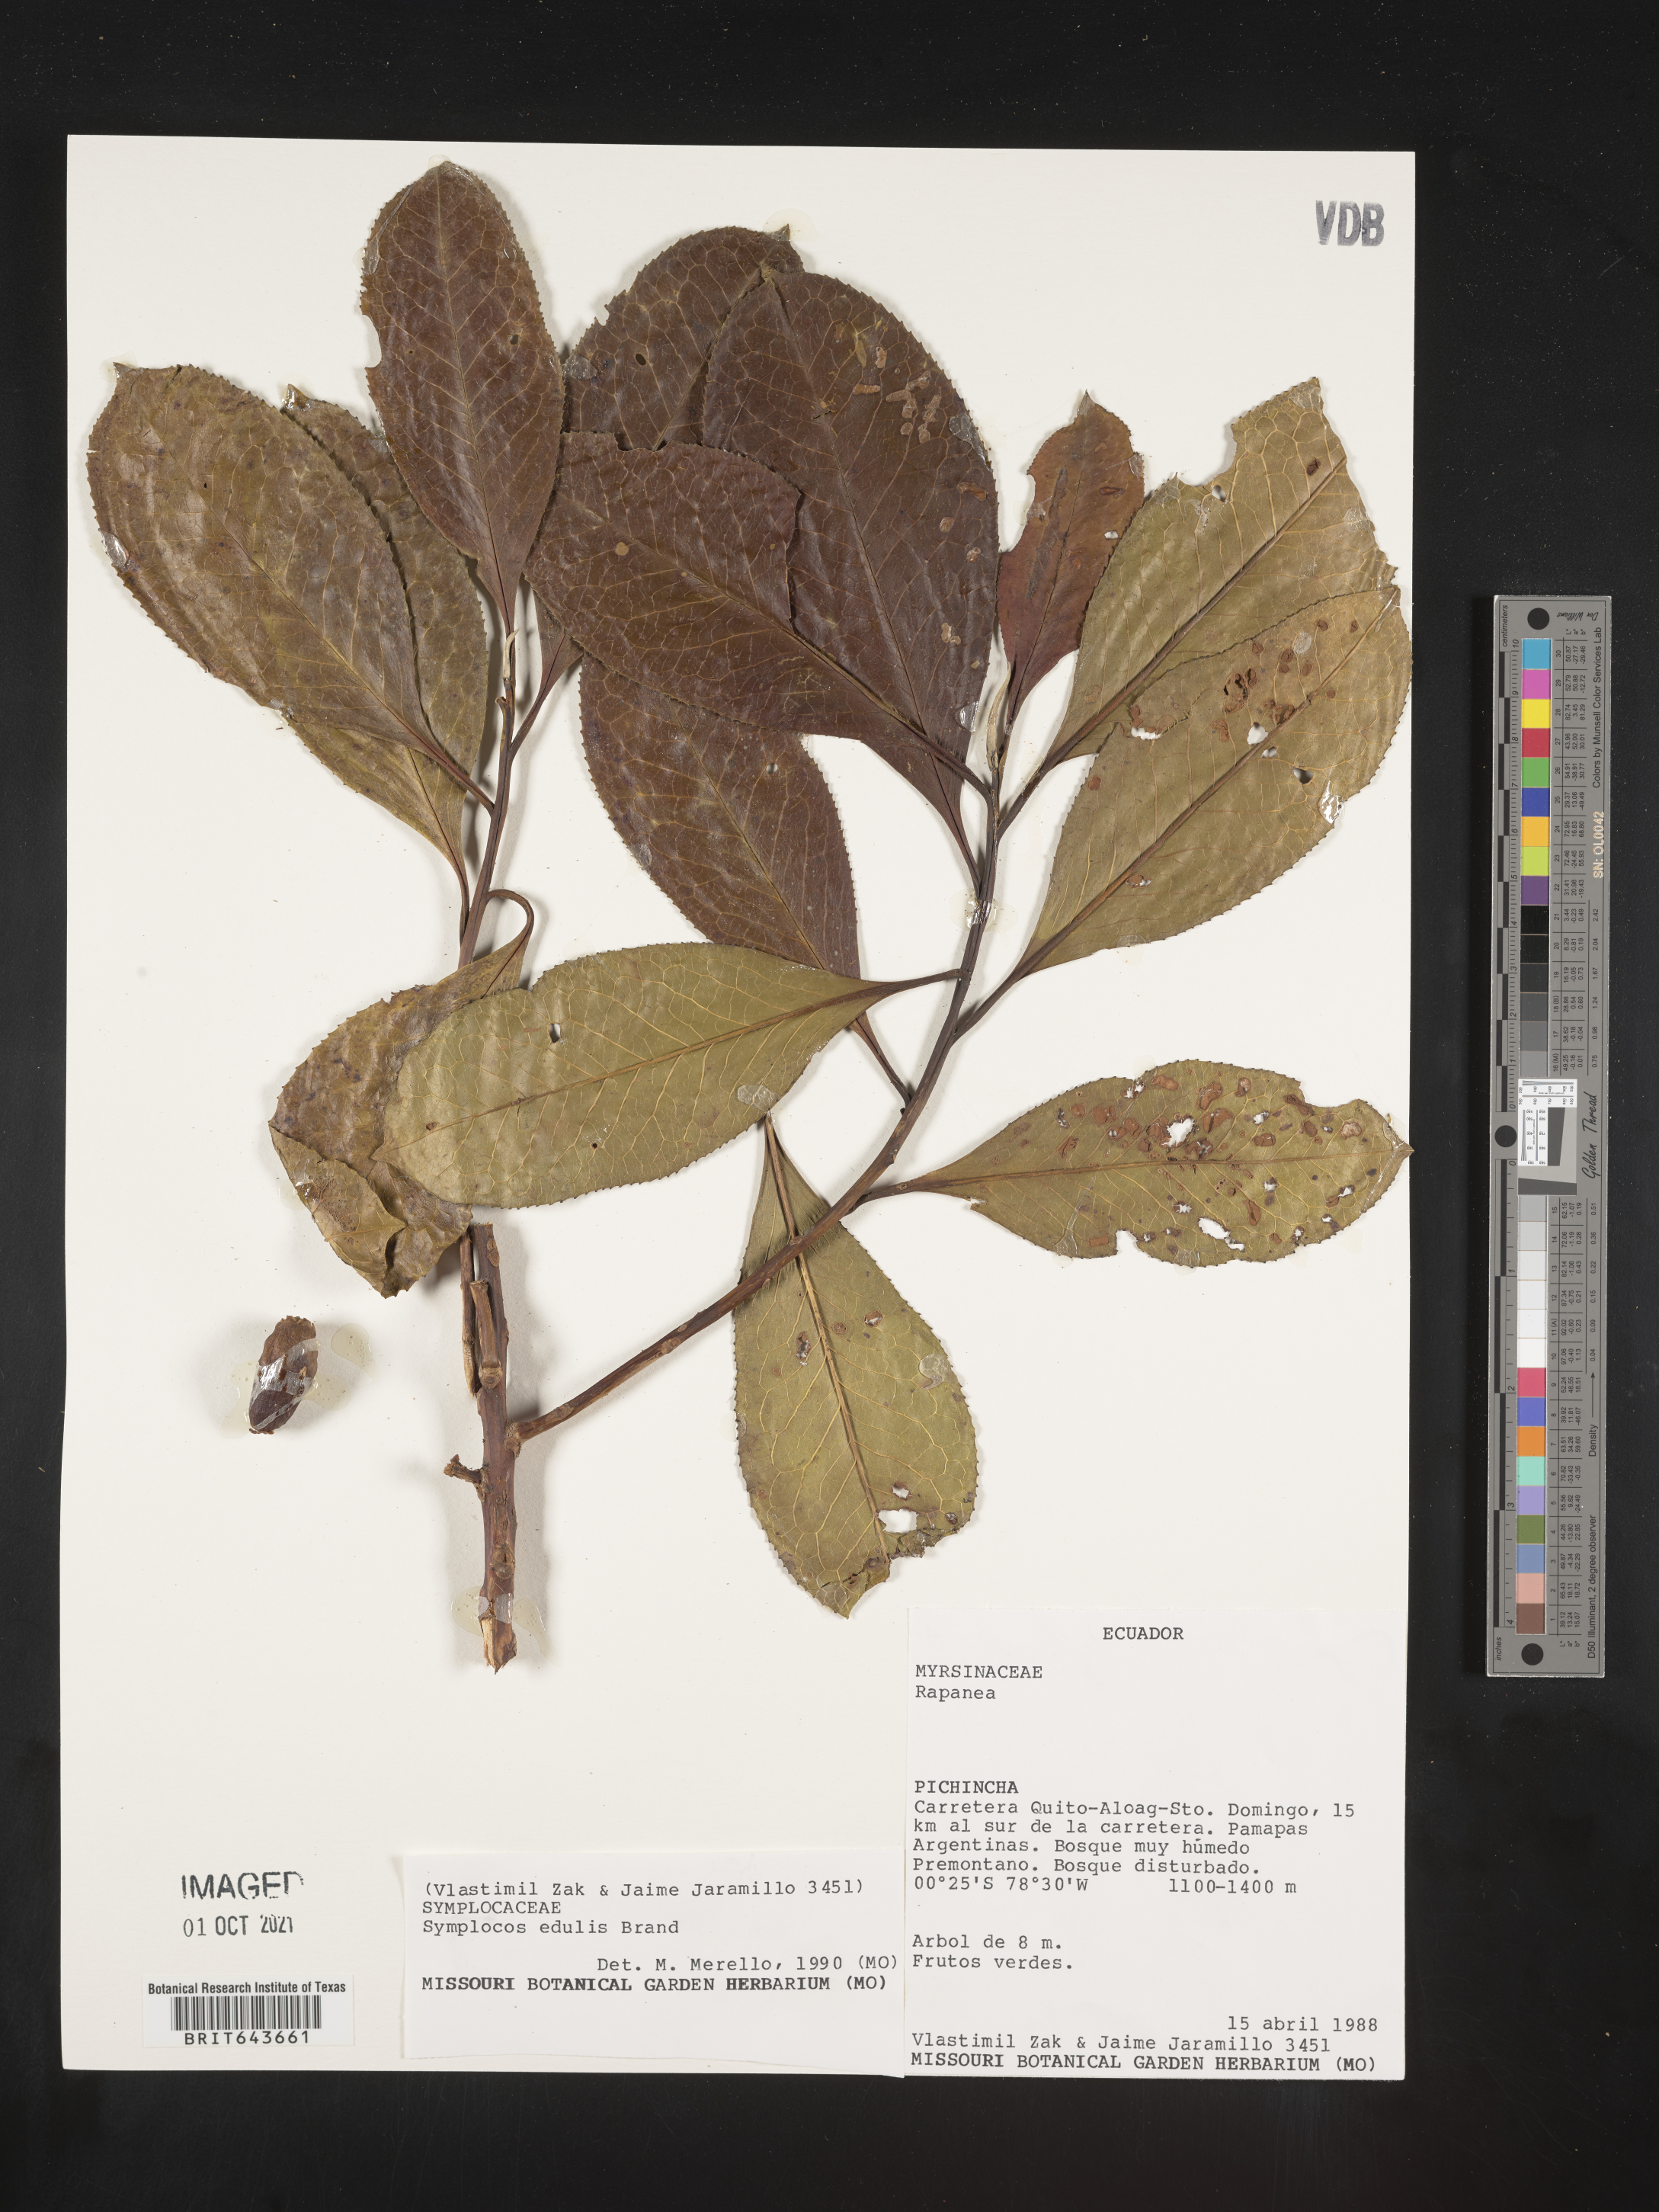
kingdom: Plantae
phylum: Tracheophyta
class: Magnoliopsida
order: Ericales
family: Symplocaceae
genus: Symplocos
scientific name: Symplocos
